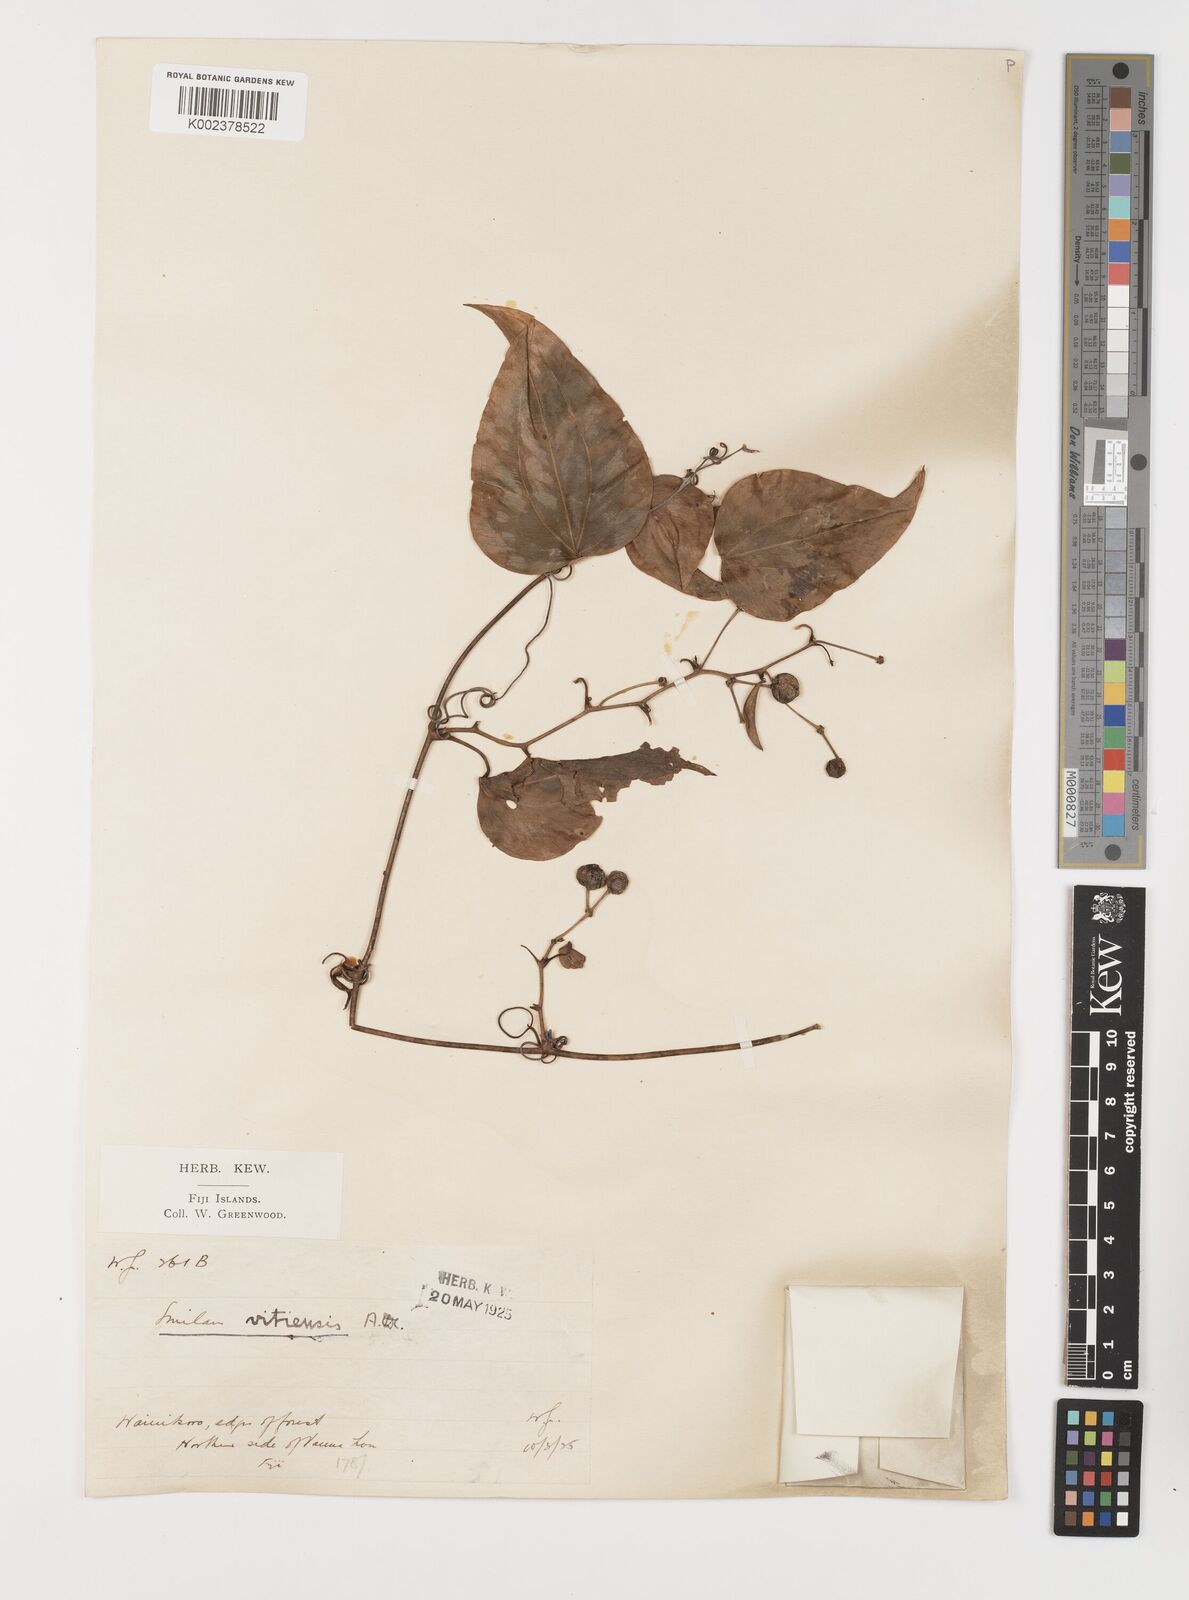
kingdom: Plantae
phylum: Tracheophyta
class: Liliopsida
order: Liliales
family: Smilacaceae
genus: Smilax
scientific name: Smilax vitiensis
